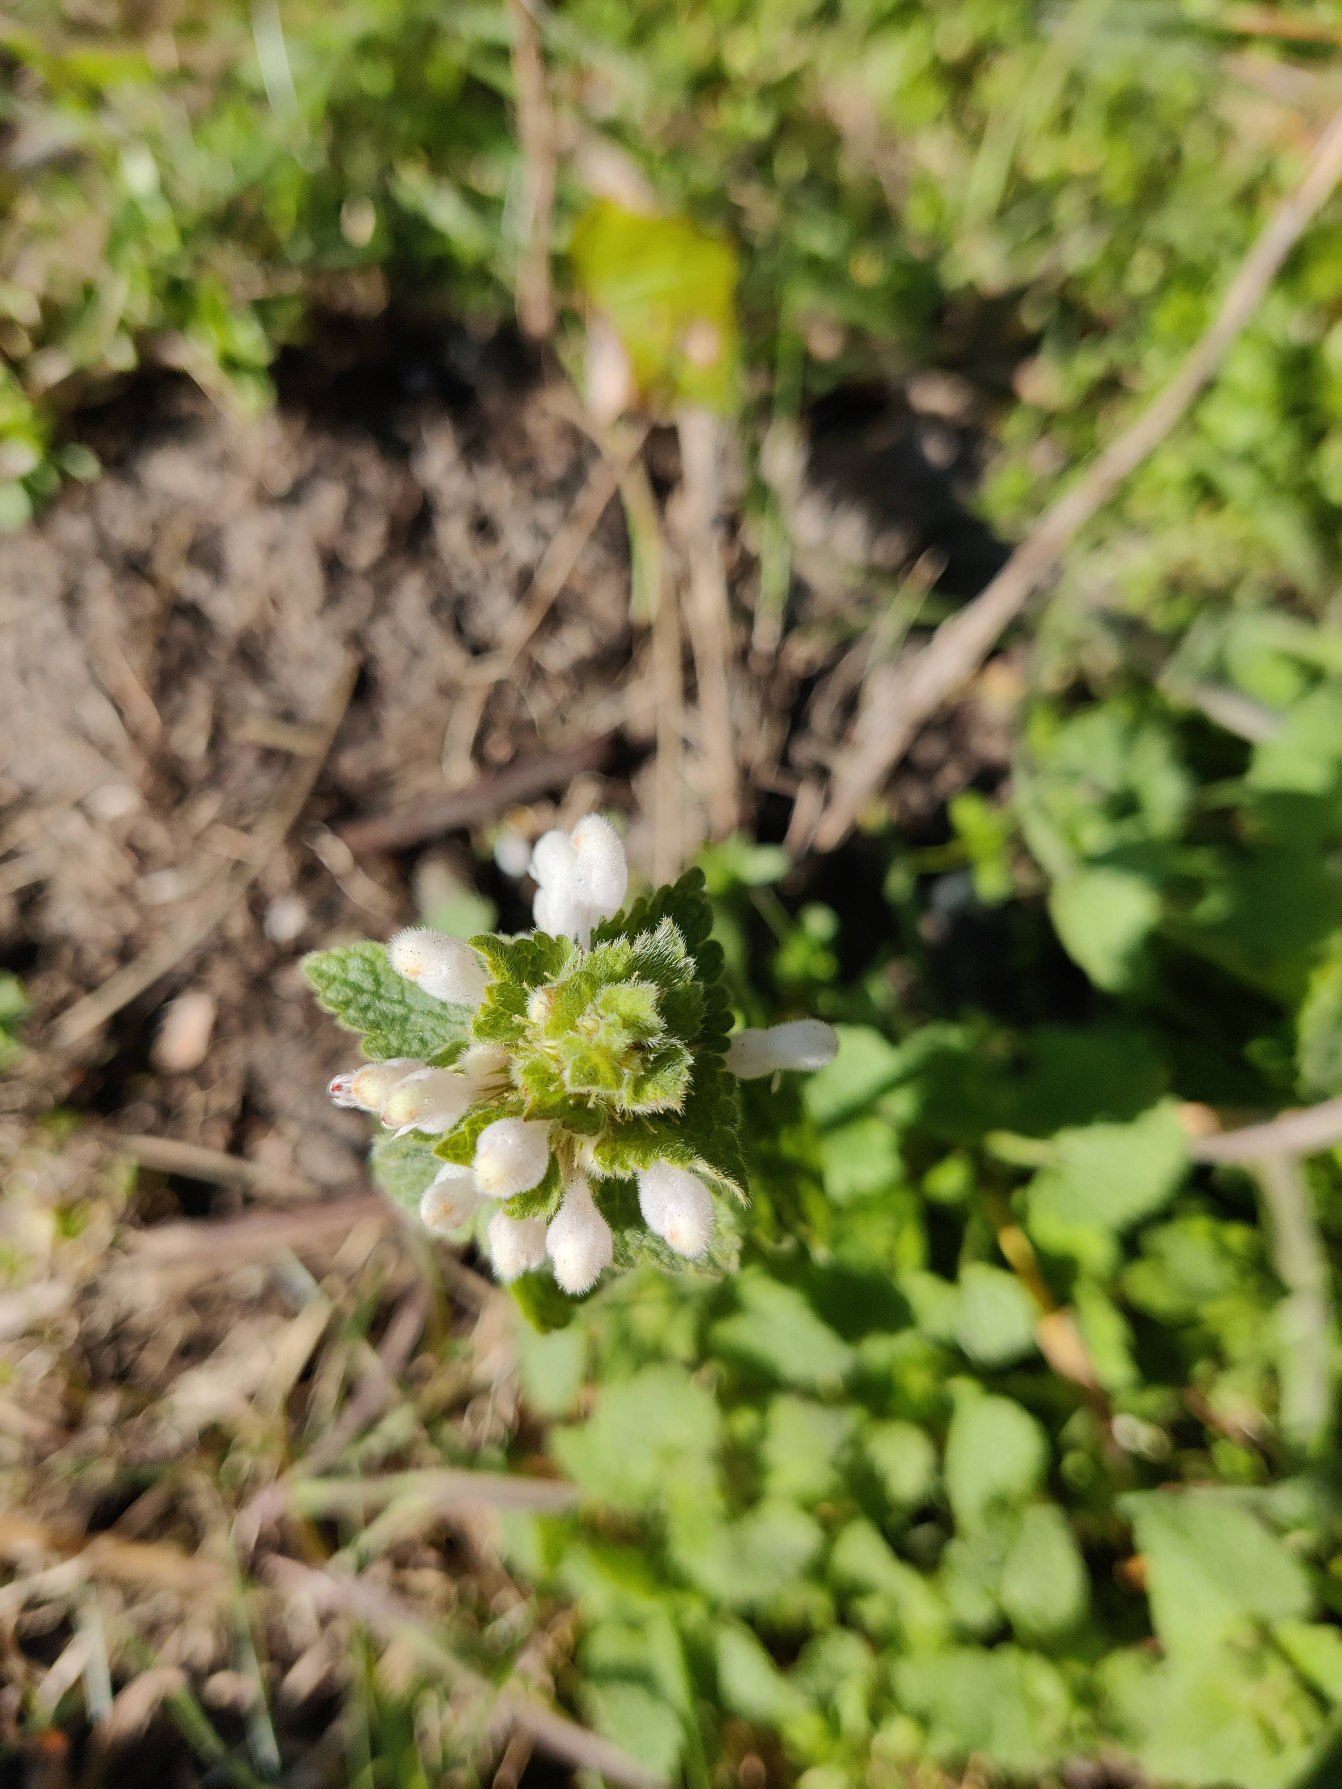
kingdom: Plantae
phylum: Tracheophyta
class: Magnoliopsida
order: Lamiales
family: Lamiaceae
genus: Lamium
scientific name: Lamium purpureum
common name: Rød tvetand
